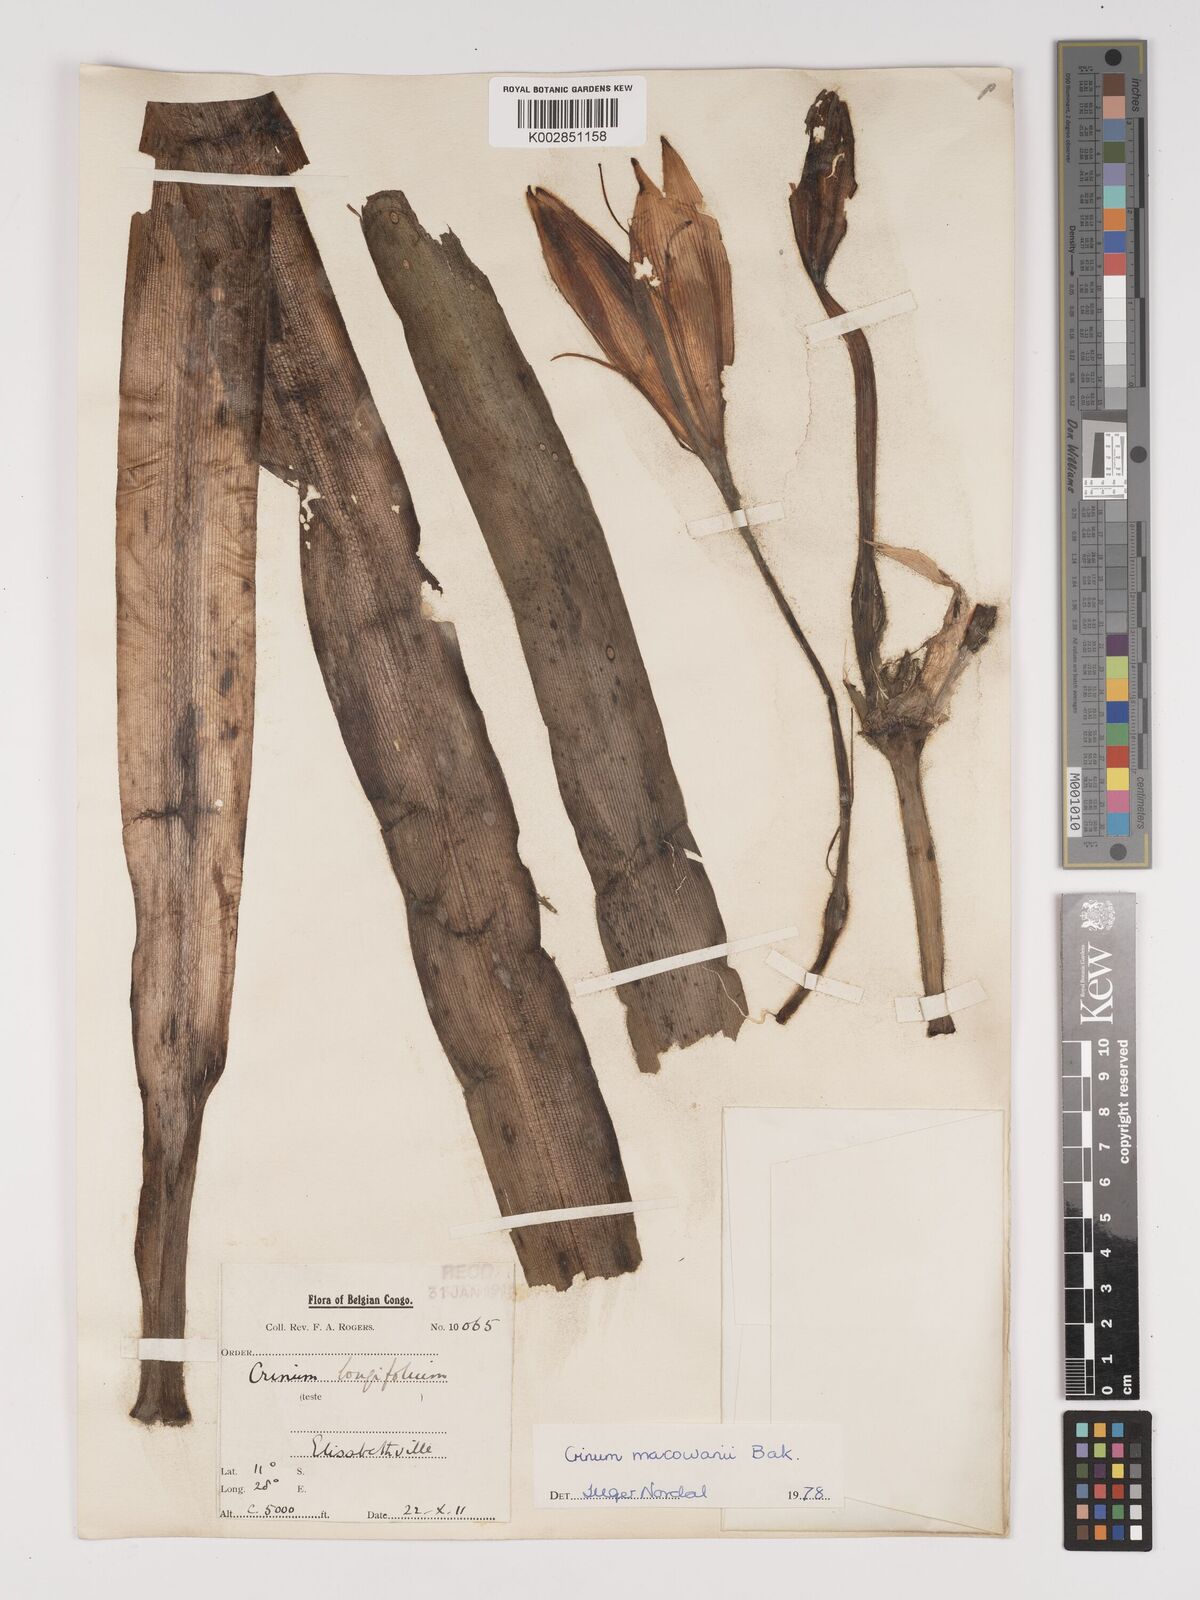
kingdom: Plantae
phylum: Tracheophyta
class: Liliopsida
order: Asparagales
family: Amaryllidaceae
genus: Crinum
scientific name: Crinum macowanii
